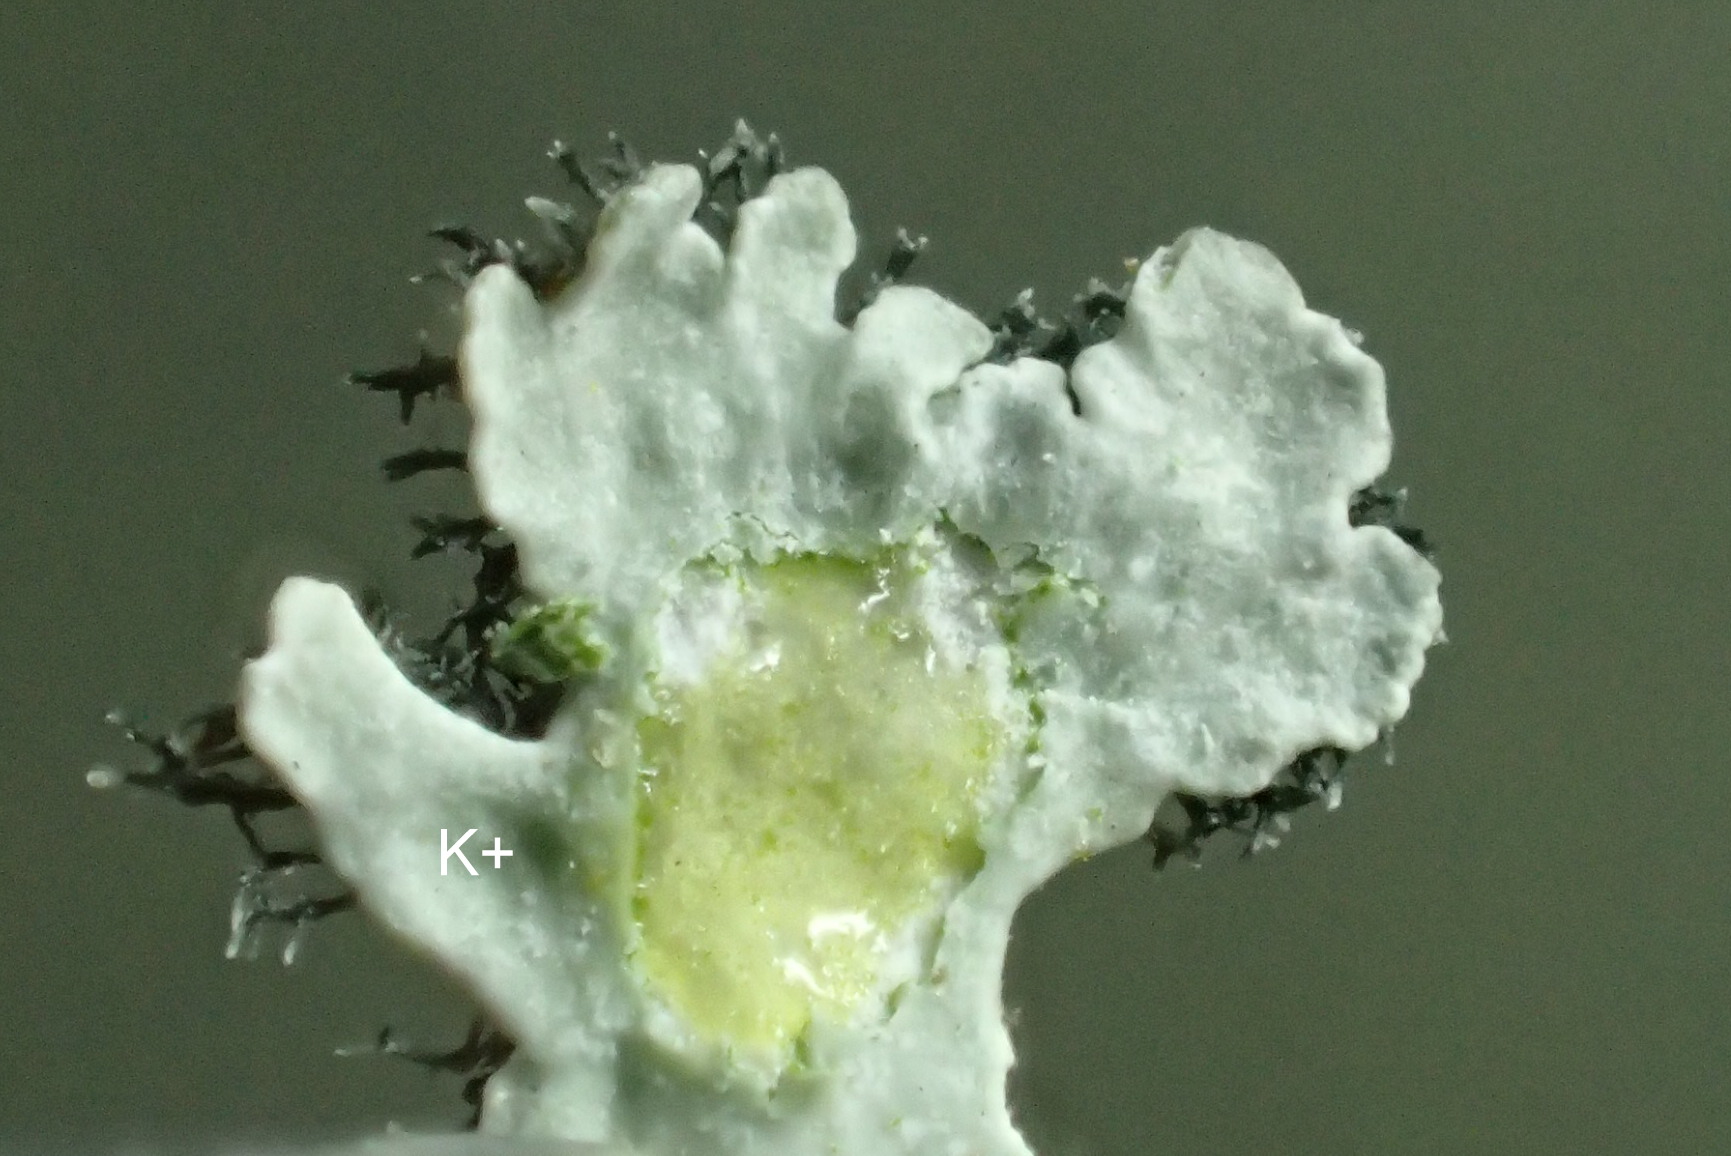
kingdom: Fungi
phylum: Ascomycota
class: Lecanoromycetes
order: Caliciales
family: Physciaceae
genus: Physcia
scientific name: Physcia aipolia
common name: hvidprikket rosetlav
